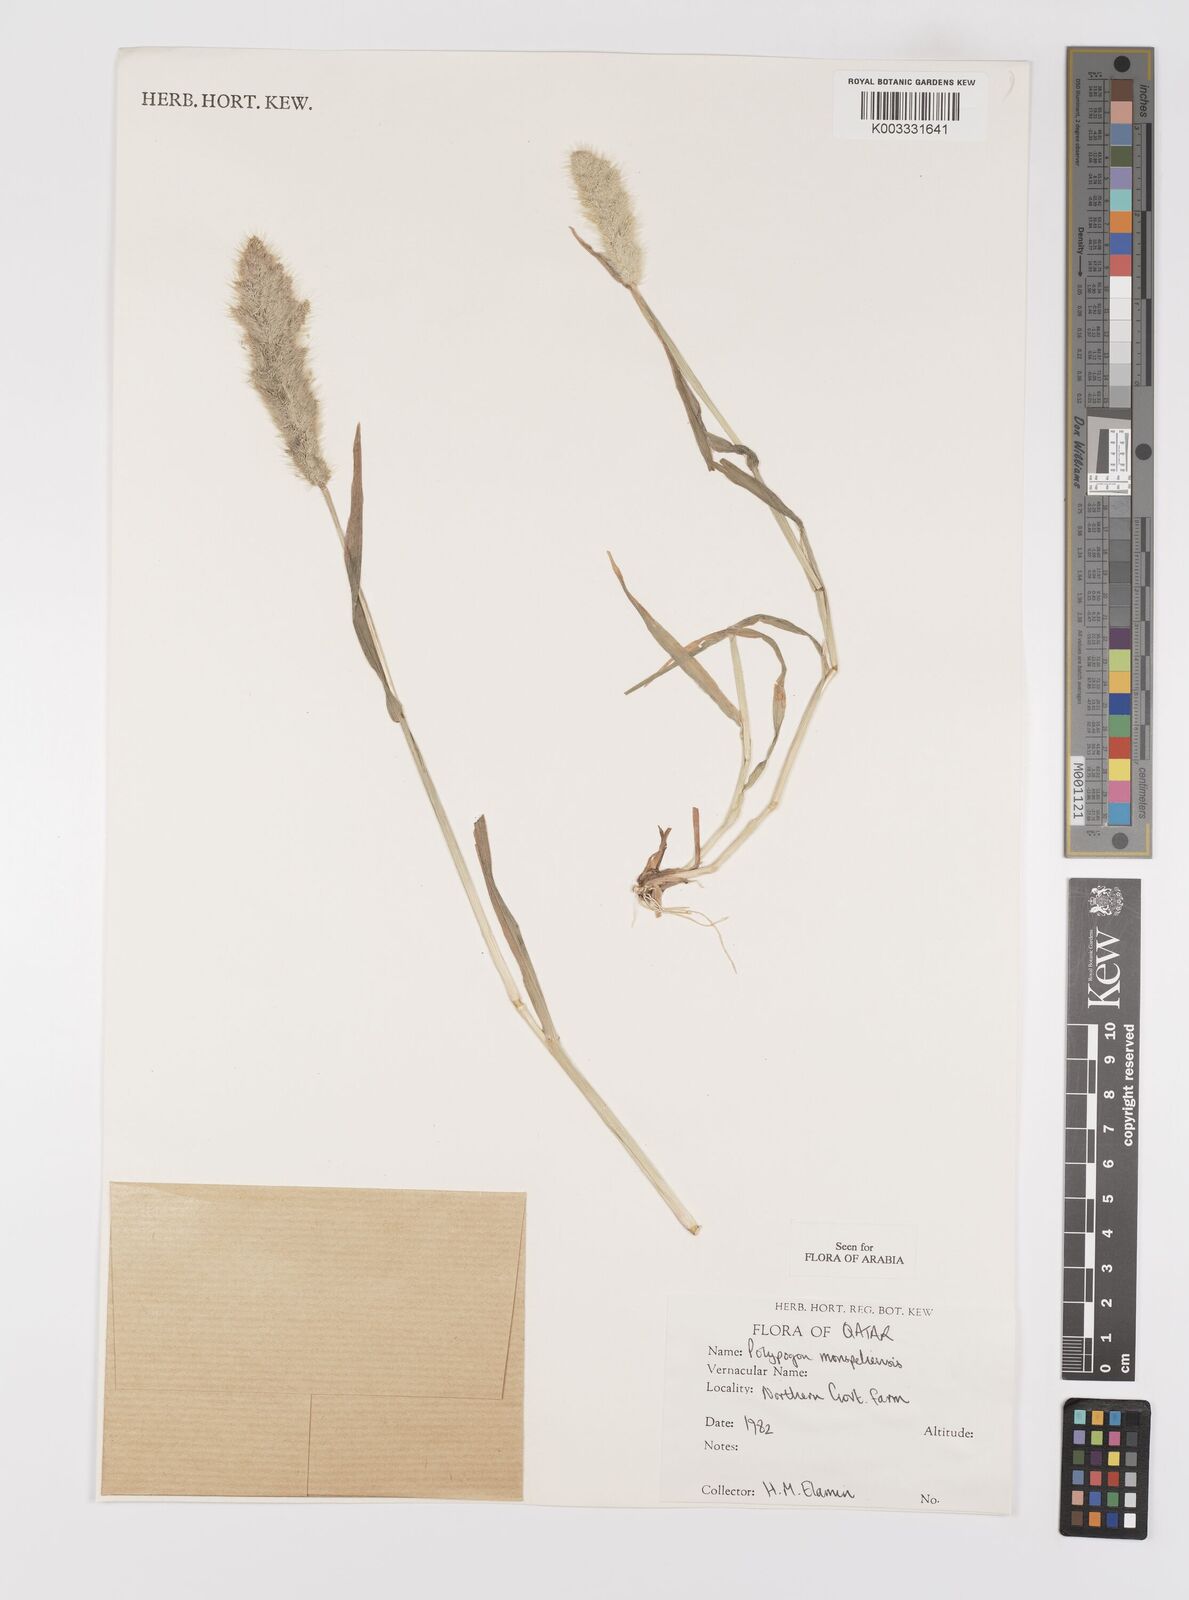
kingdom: Plantae
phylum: Tracheophyta
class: Liliopsida
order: Poales
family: Poaceae
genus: Polypogon
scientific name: Polypogon monspeliensis
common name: Annual rabbitsfoot grass
